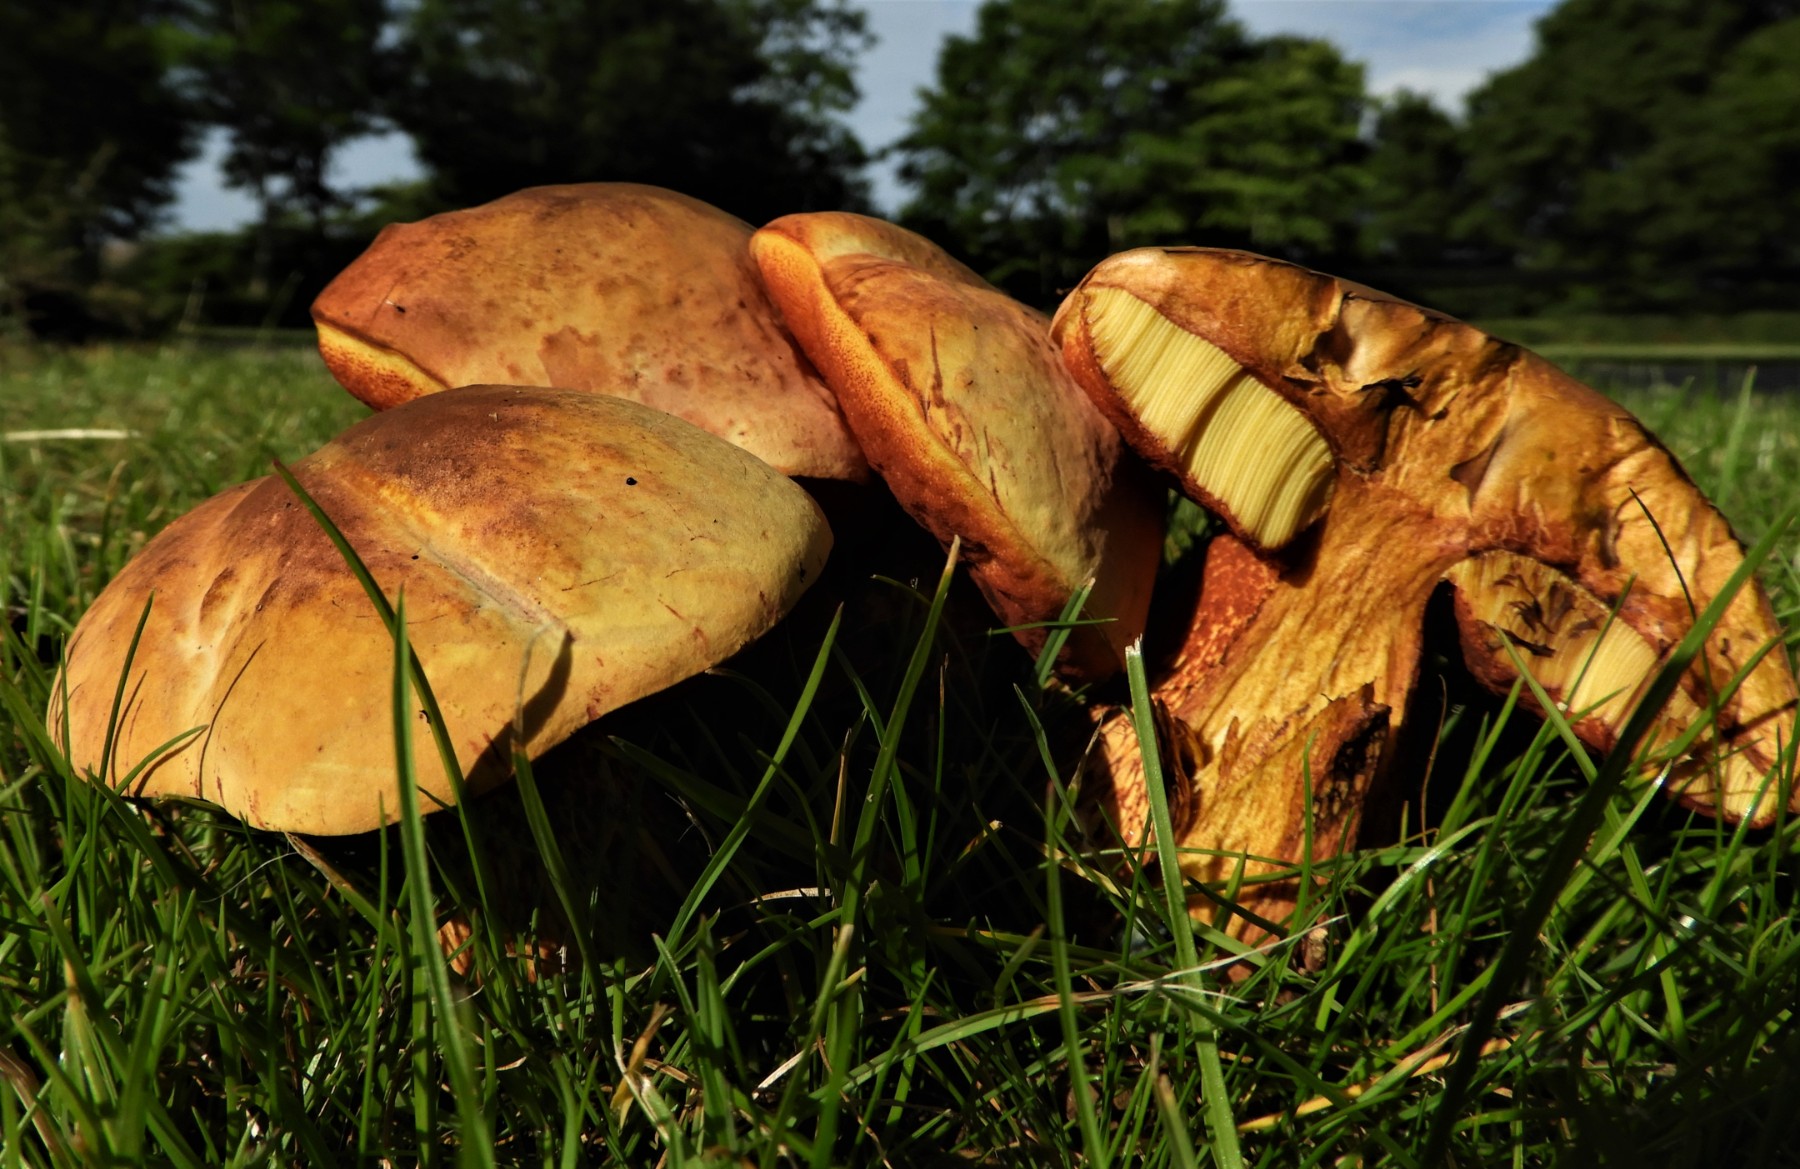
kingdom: Fungi
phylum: Basidiomycota
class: Agaricomycetes
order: Boletales
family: Boletaceae
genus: Suillellus
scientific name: Suillellus luridus
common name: netstokket indigorørhat
